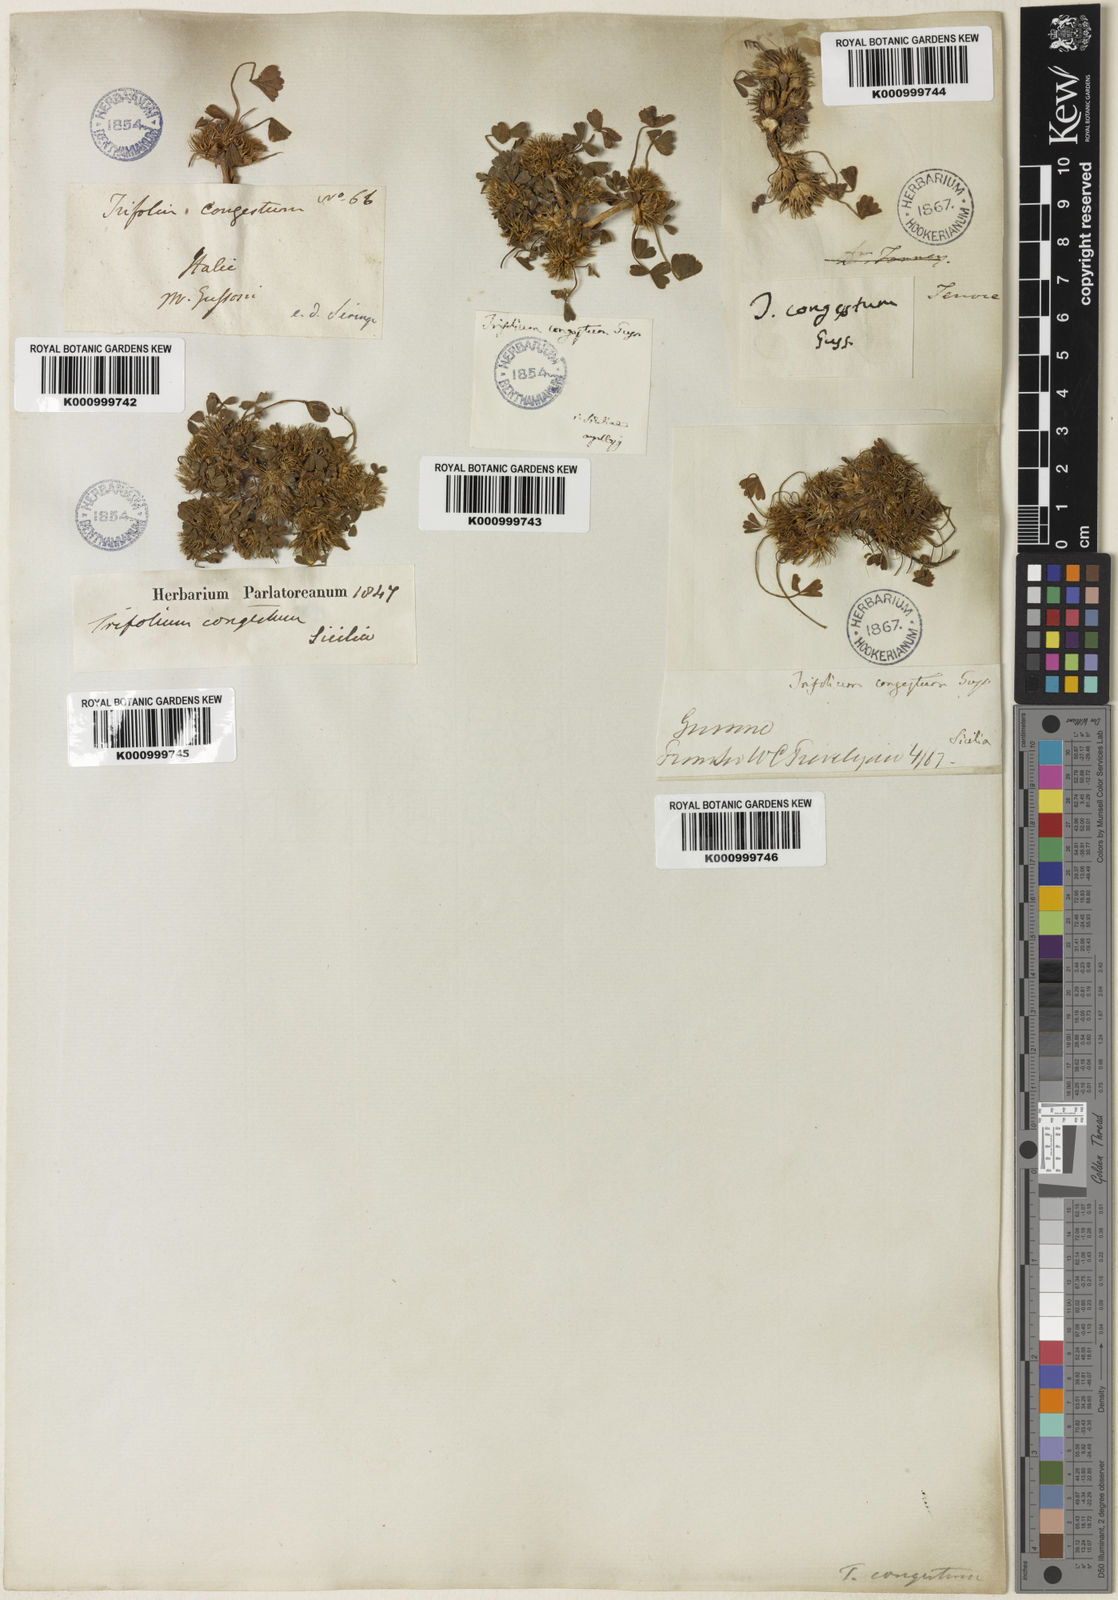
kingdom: Plantae
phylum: Tracheophyta
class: Magnoliopsida
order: Fabales
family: Fabaceae
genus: Trifolium
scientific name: Trifolium congestum
